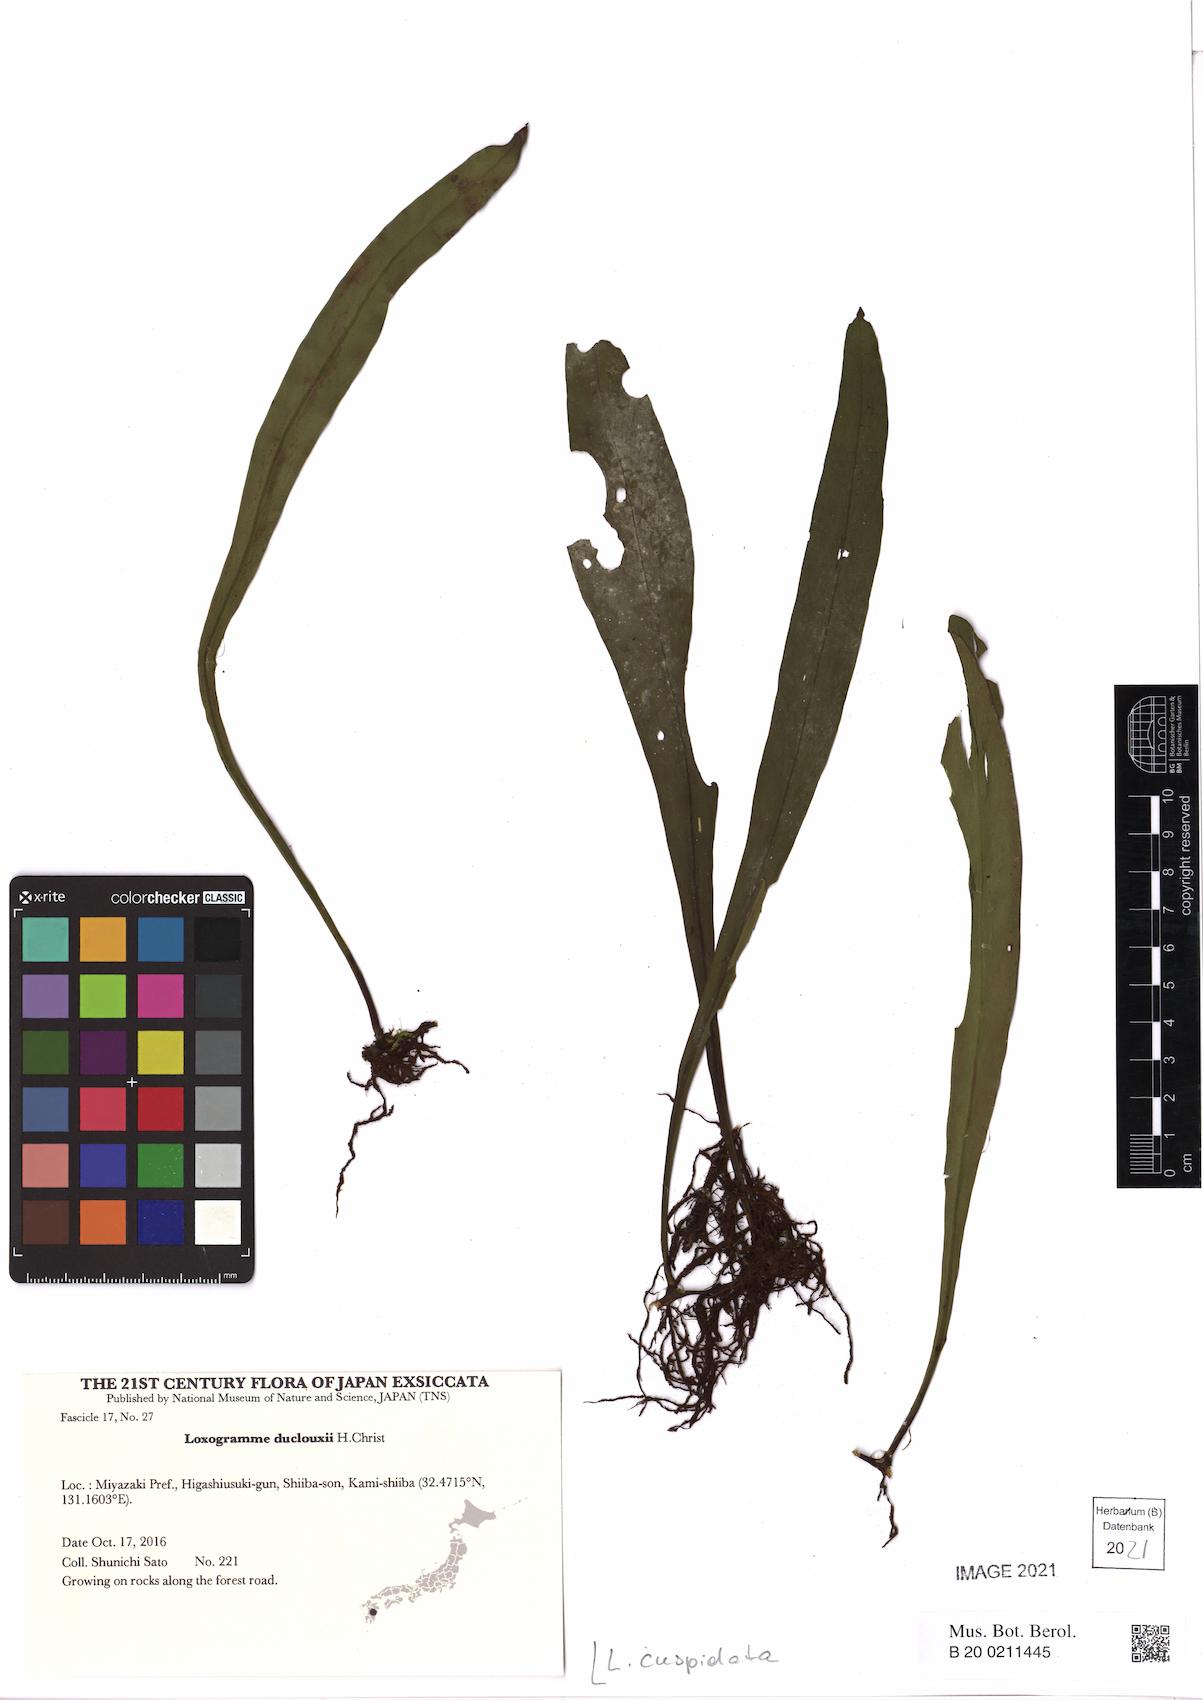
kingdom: Plantae
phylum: Tracheophyta
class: Polypodiopsida
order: Polypodiales
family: Polypodiaceae
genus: Loxogramme
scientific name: Loxogramme cuspidata
